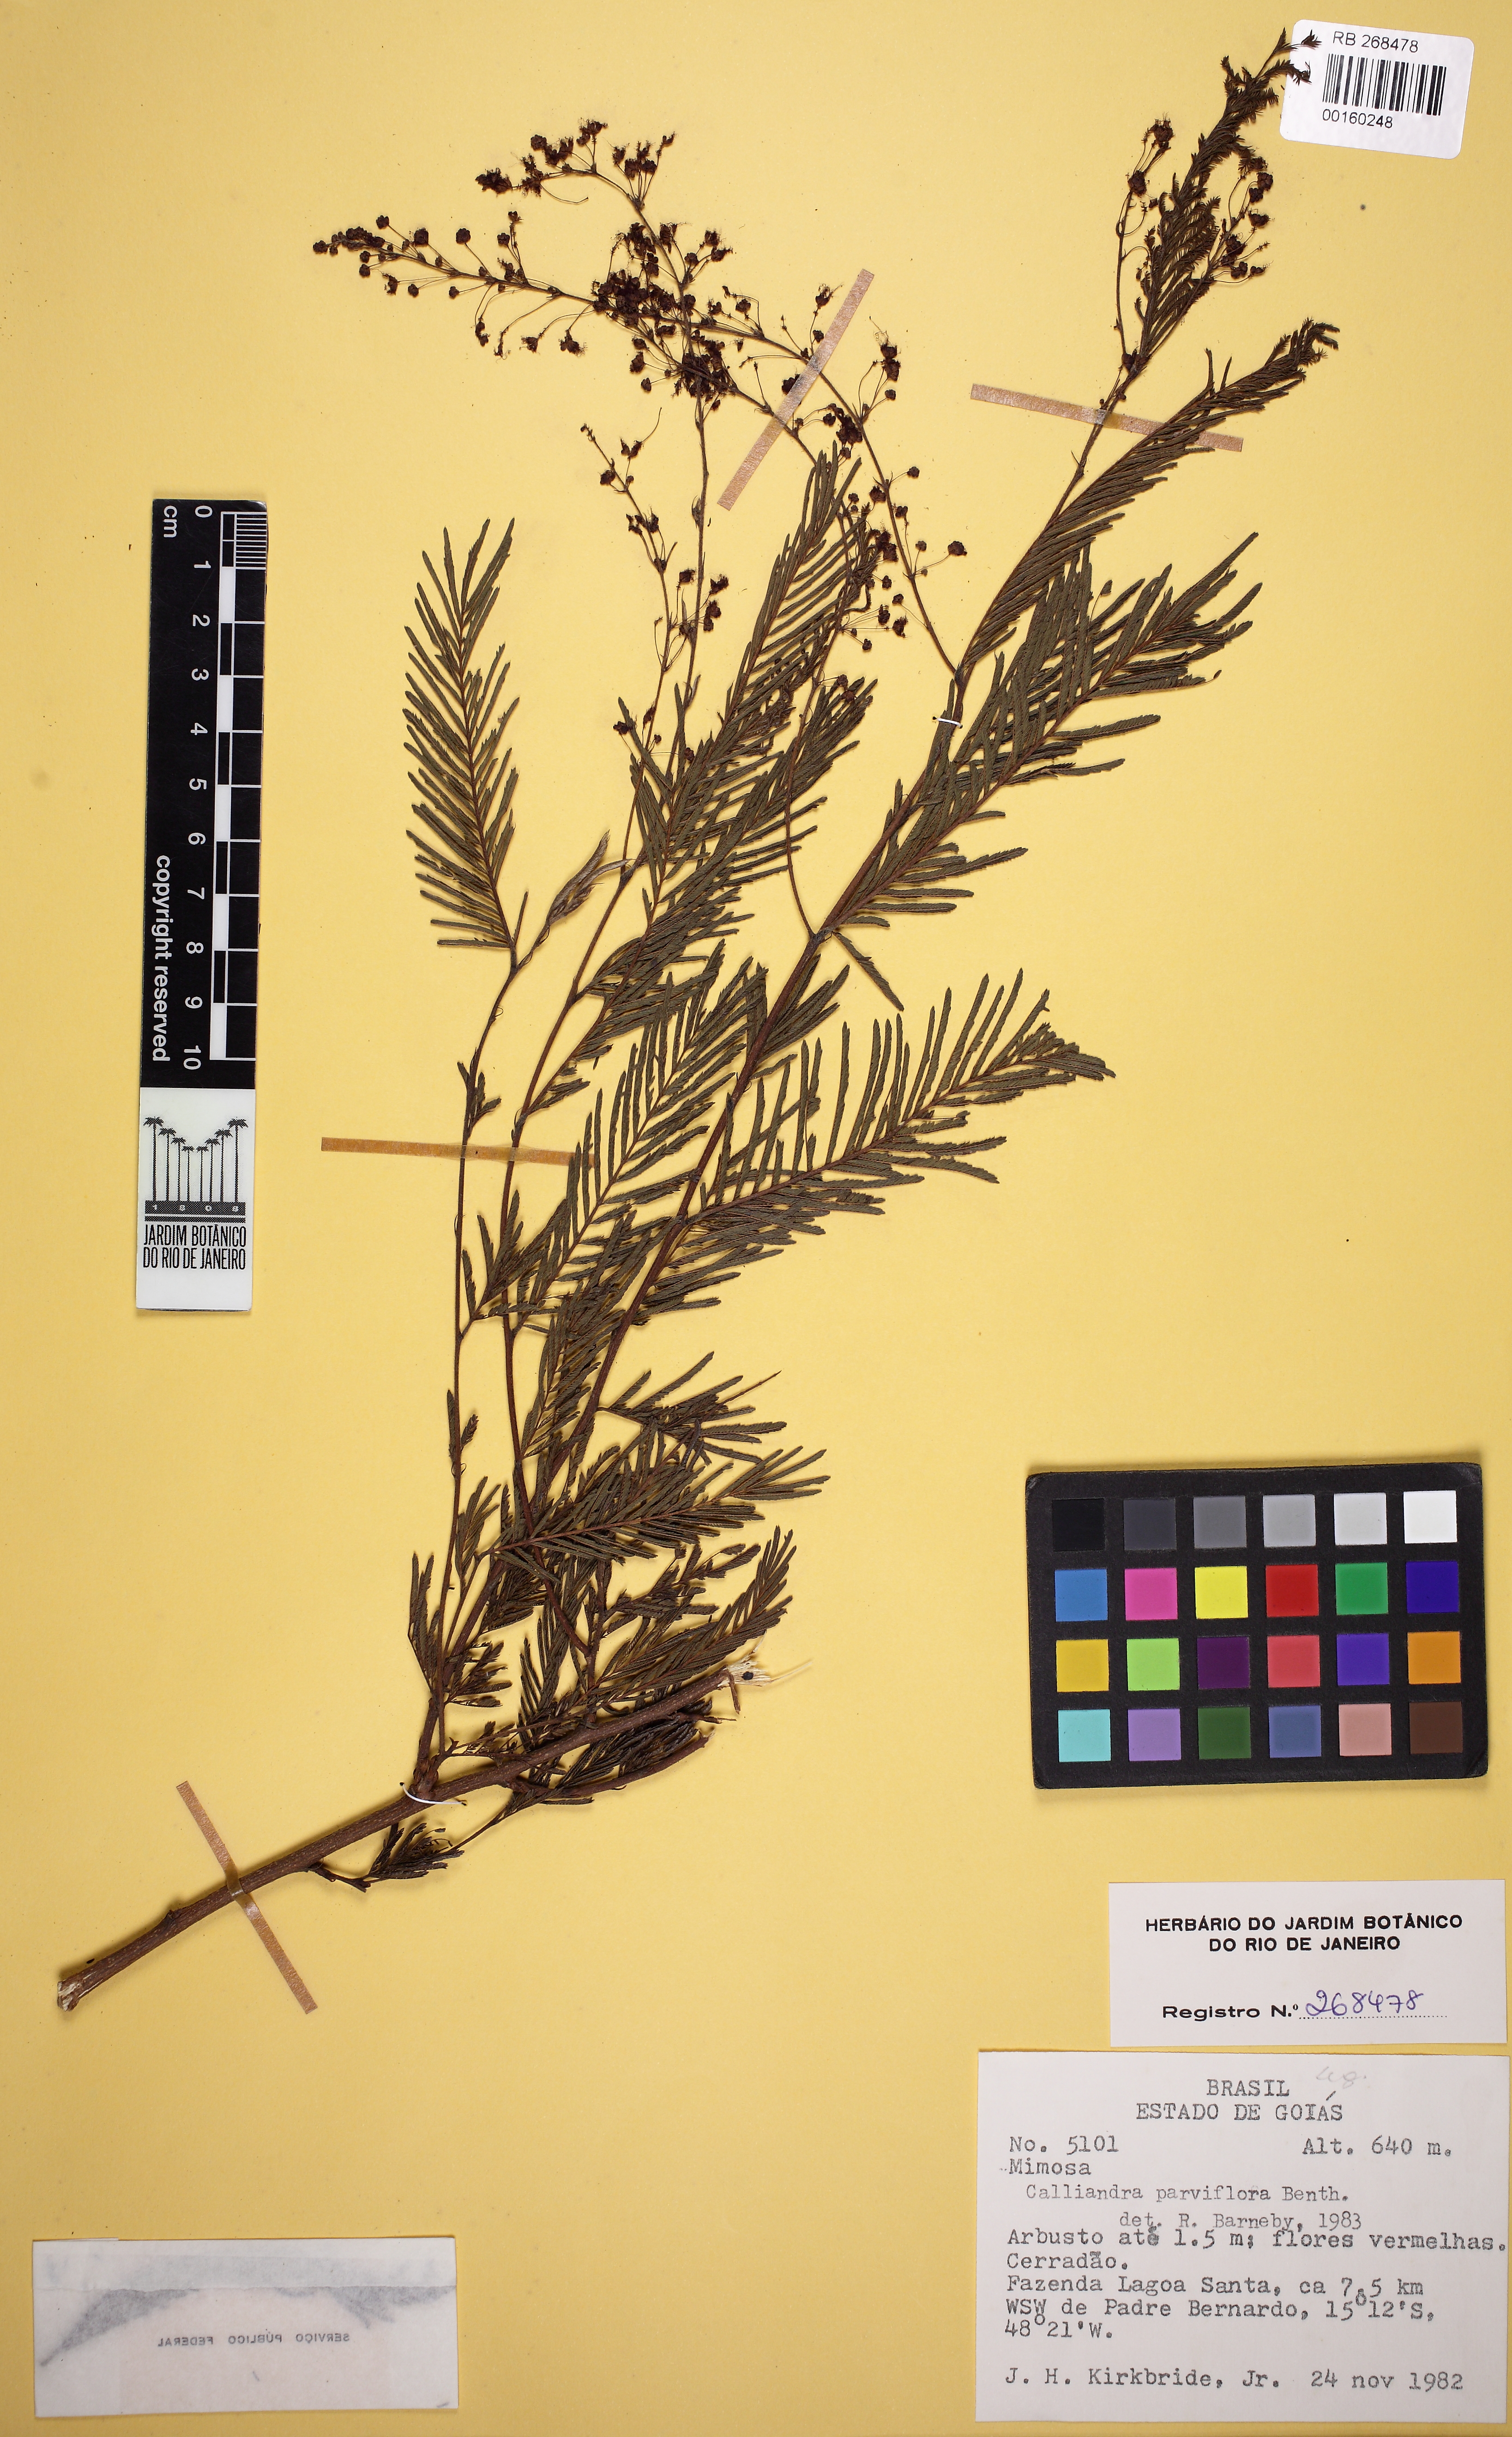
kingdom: Plantae
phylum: Tracheophyta
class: Magnoliopsida
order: Fabales
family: Fabaceae
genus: Calliandra
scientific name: Calliandra parviflora
